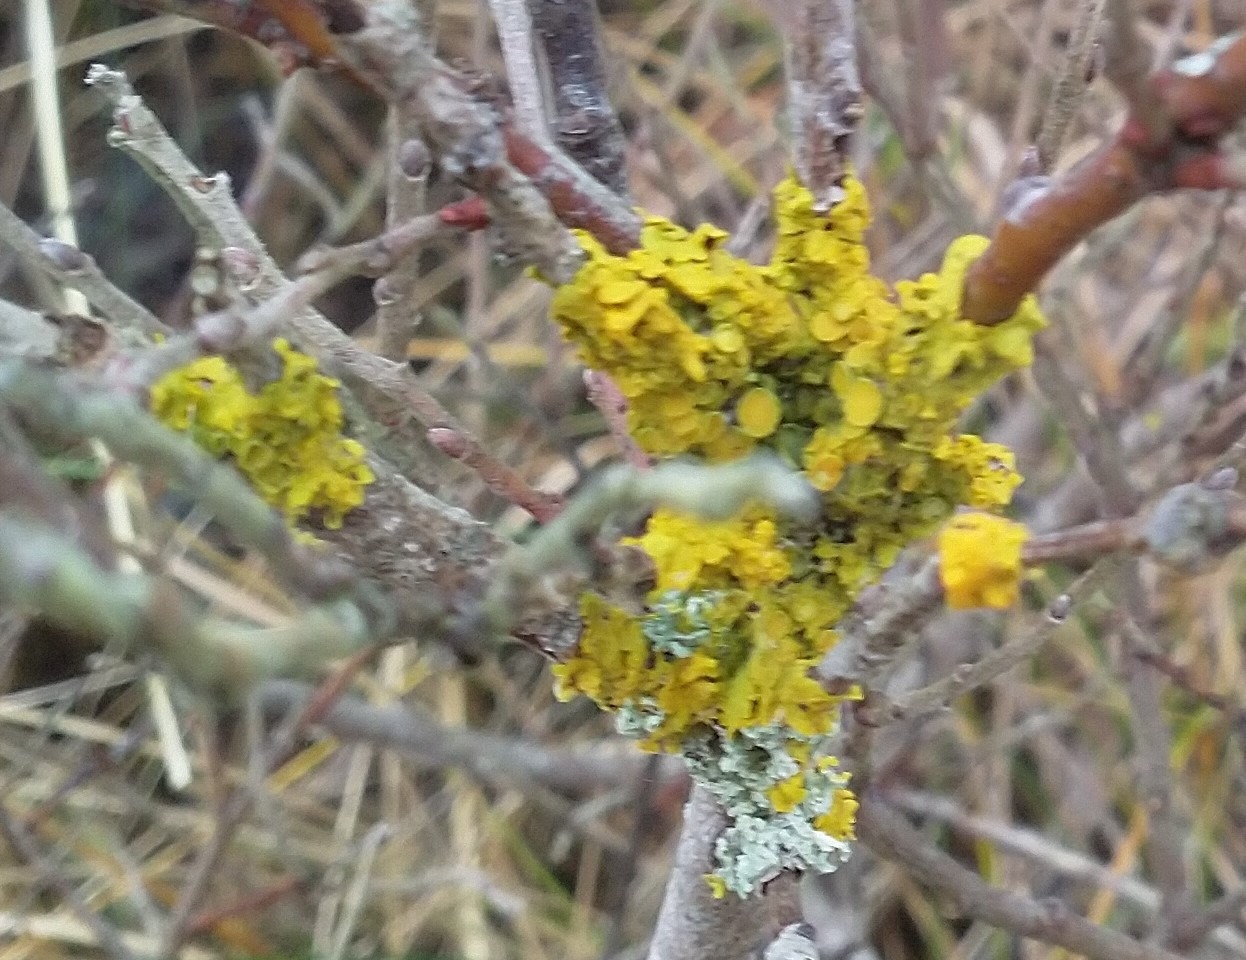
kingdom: Fungi
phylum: Ascomycota
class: Lecanoromycetes
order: Teloschistales
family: Teloschistaceae
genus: Xanthoria
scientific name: Xanthoria parietina
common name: Almindelig væggelav
